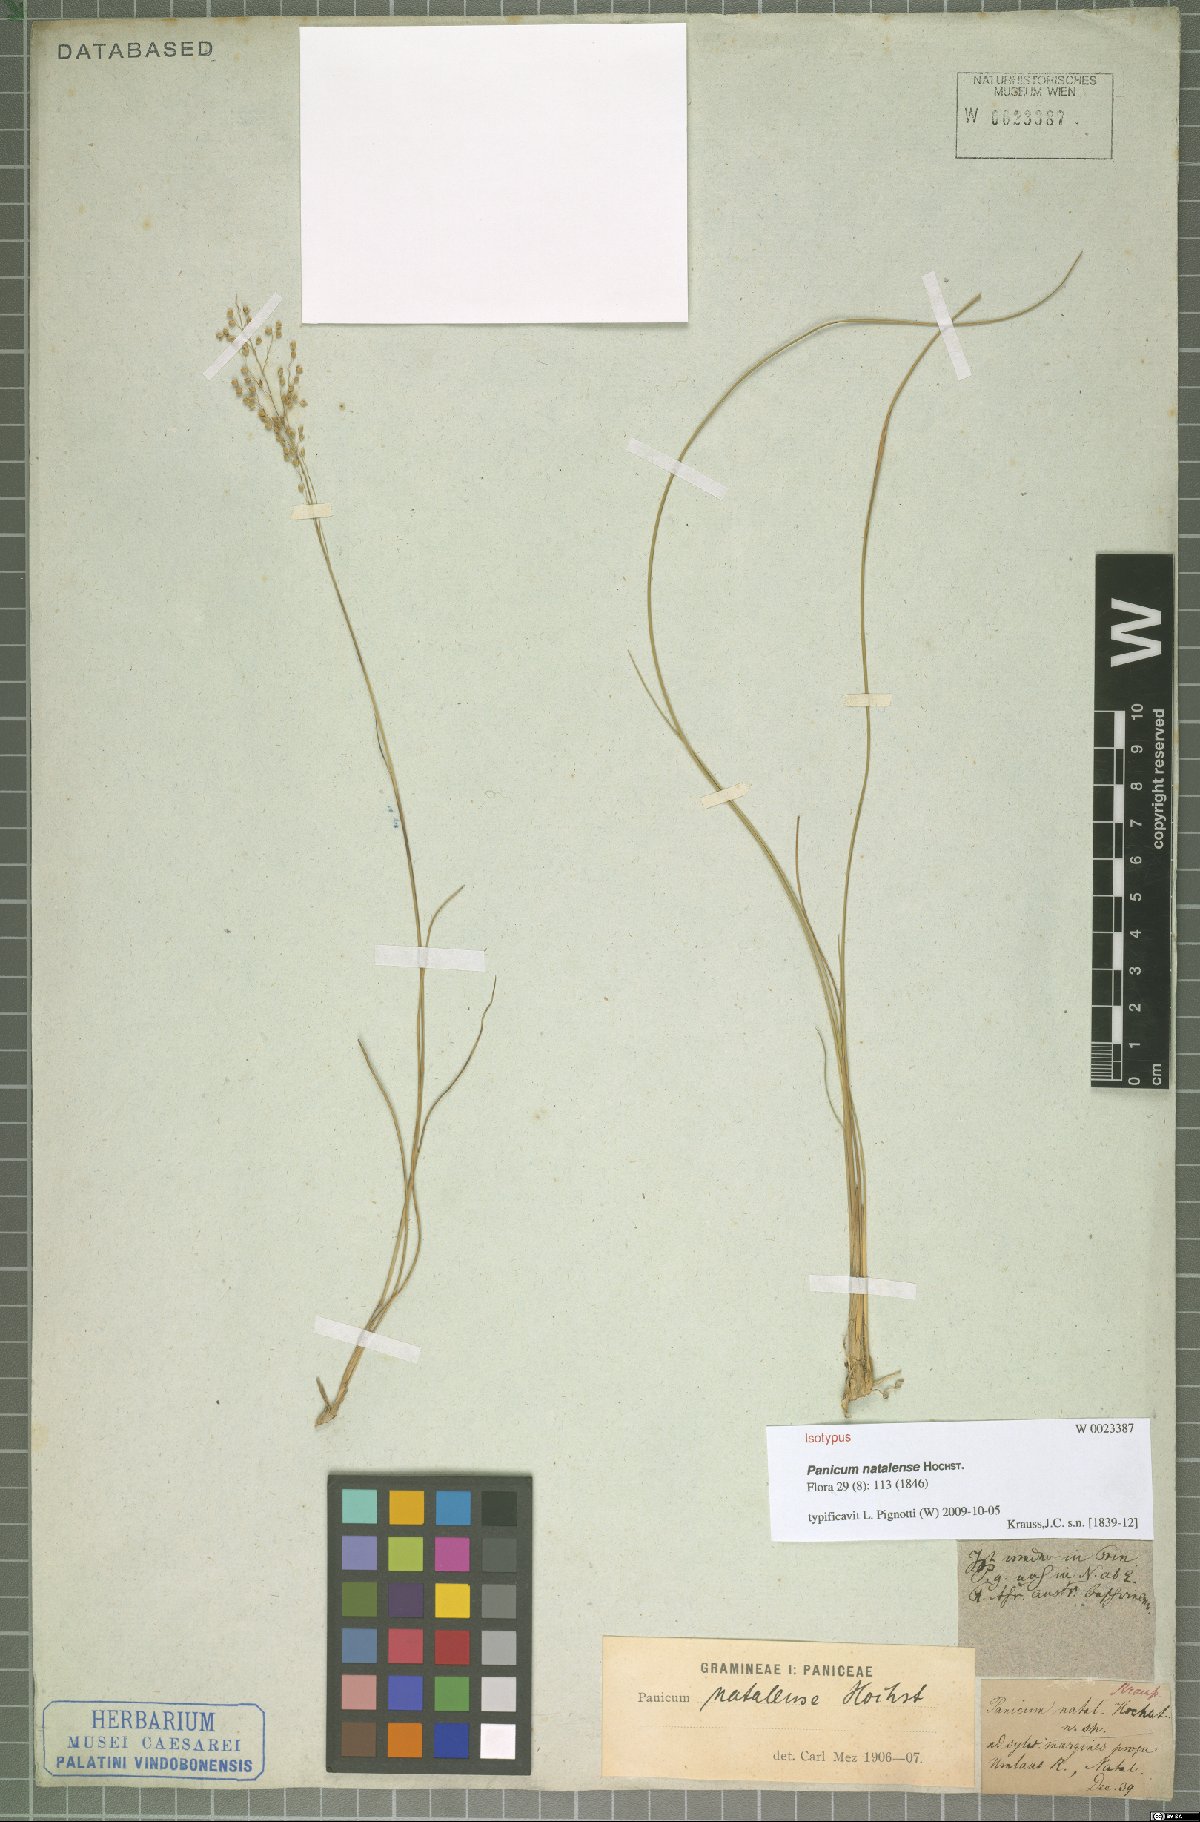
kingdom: Plantae
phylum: Tracheophyta
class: Liliopsida
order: Poales
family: Poaceae
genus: Trichanthecium
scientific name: Trichanthecium natalense
